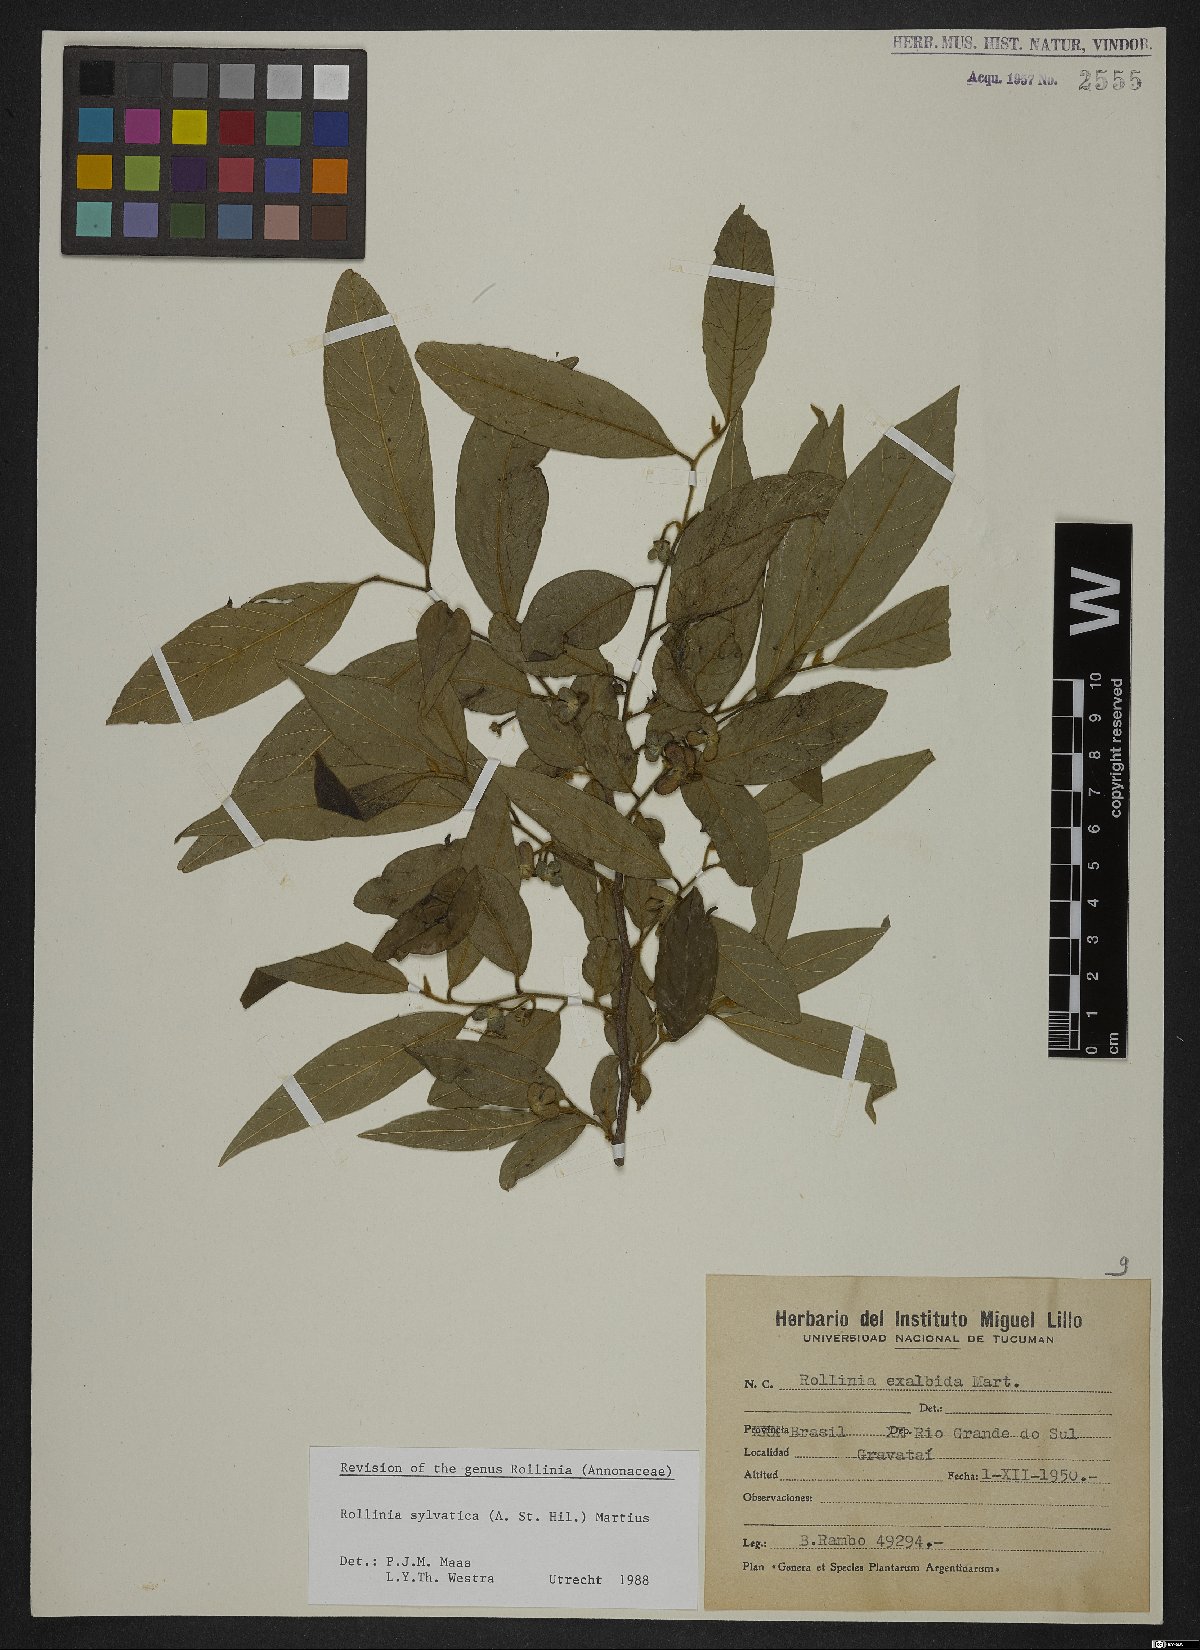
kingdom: Plantae
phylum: Tracheophyta
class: Magnoliopsida
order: Magnoliales
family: Annonaceae
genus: Annona
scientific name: Annona sylvatica
